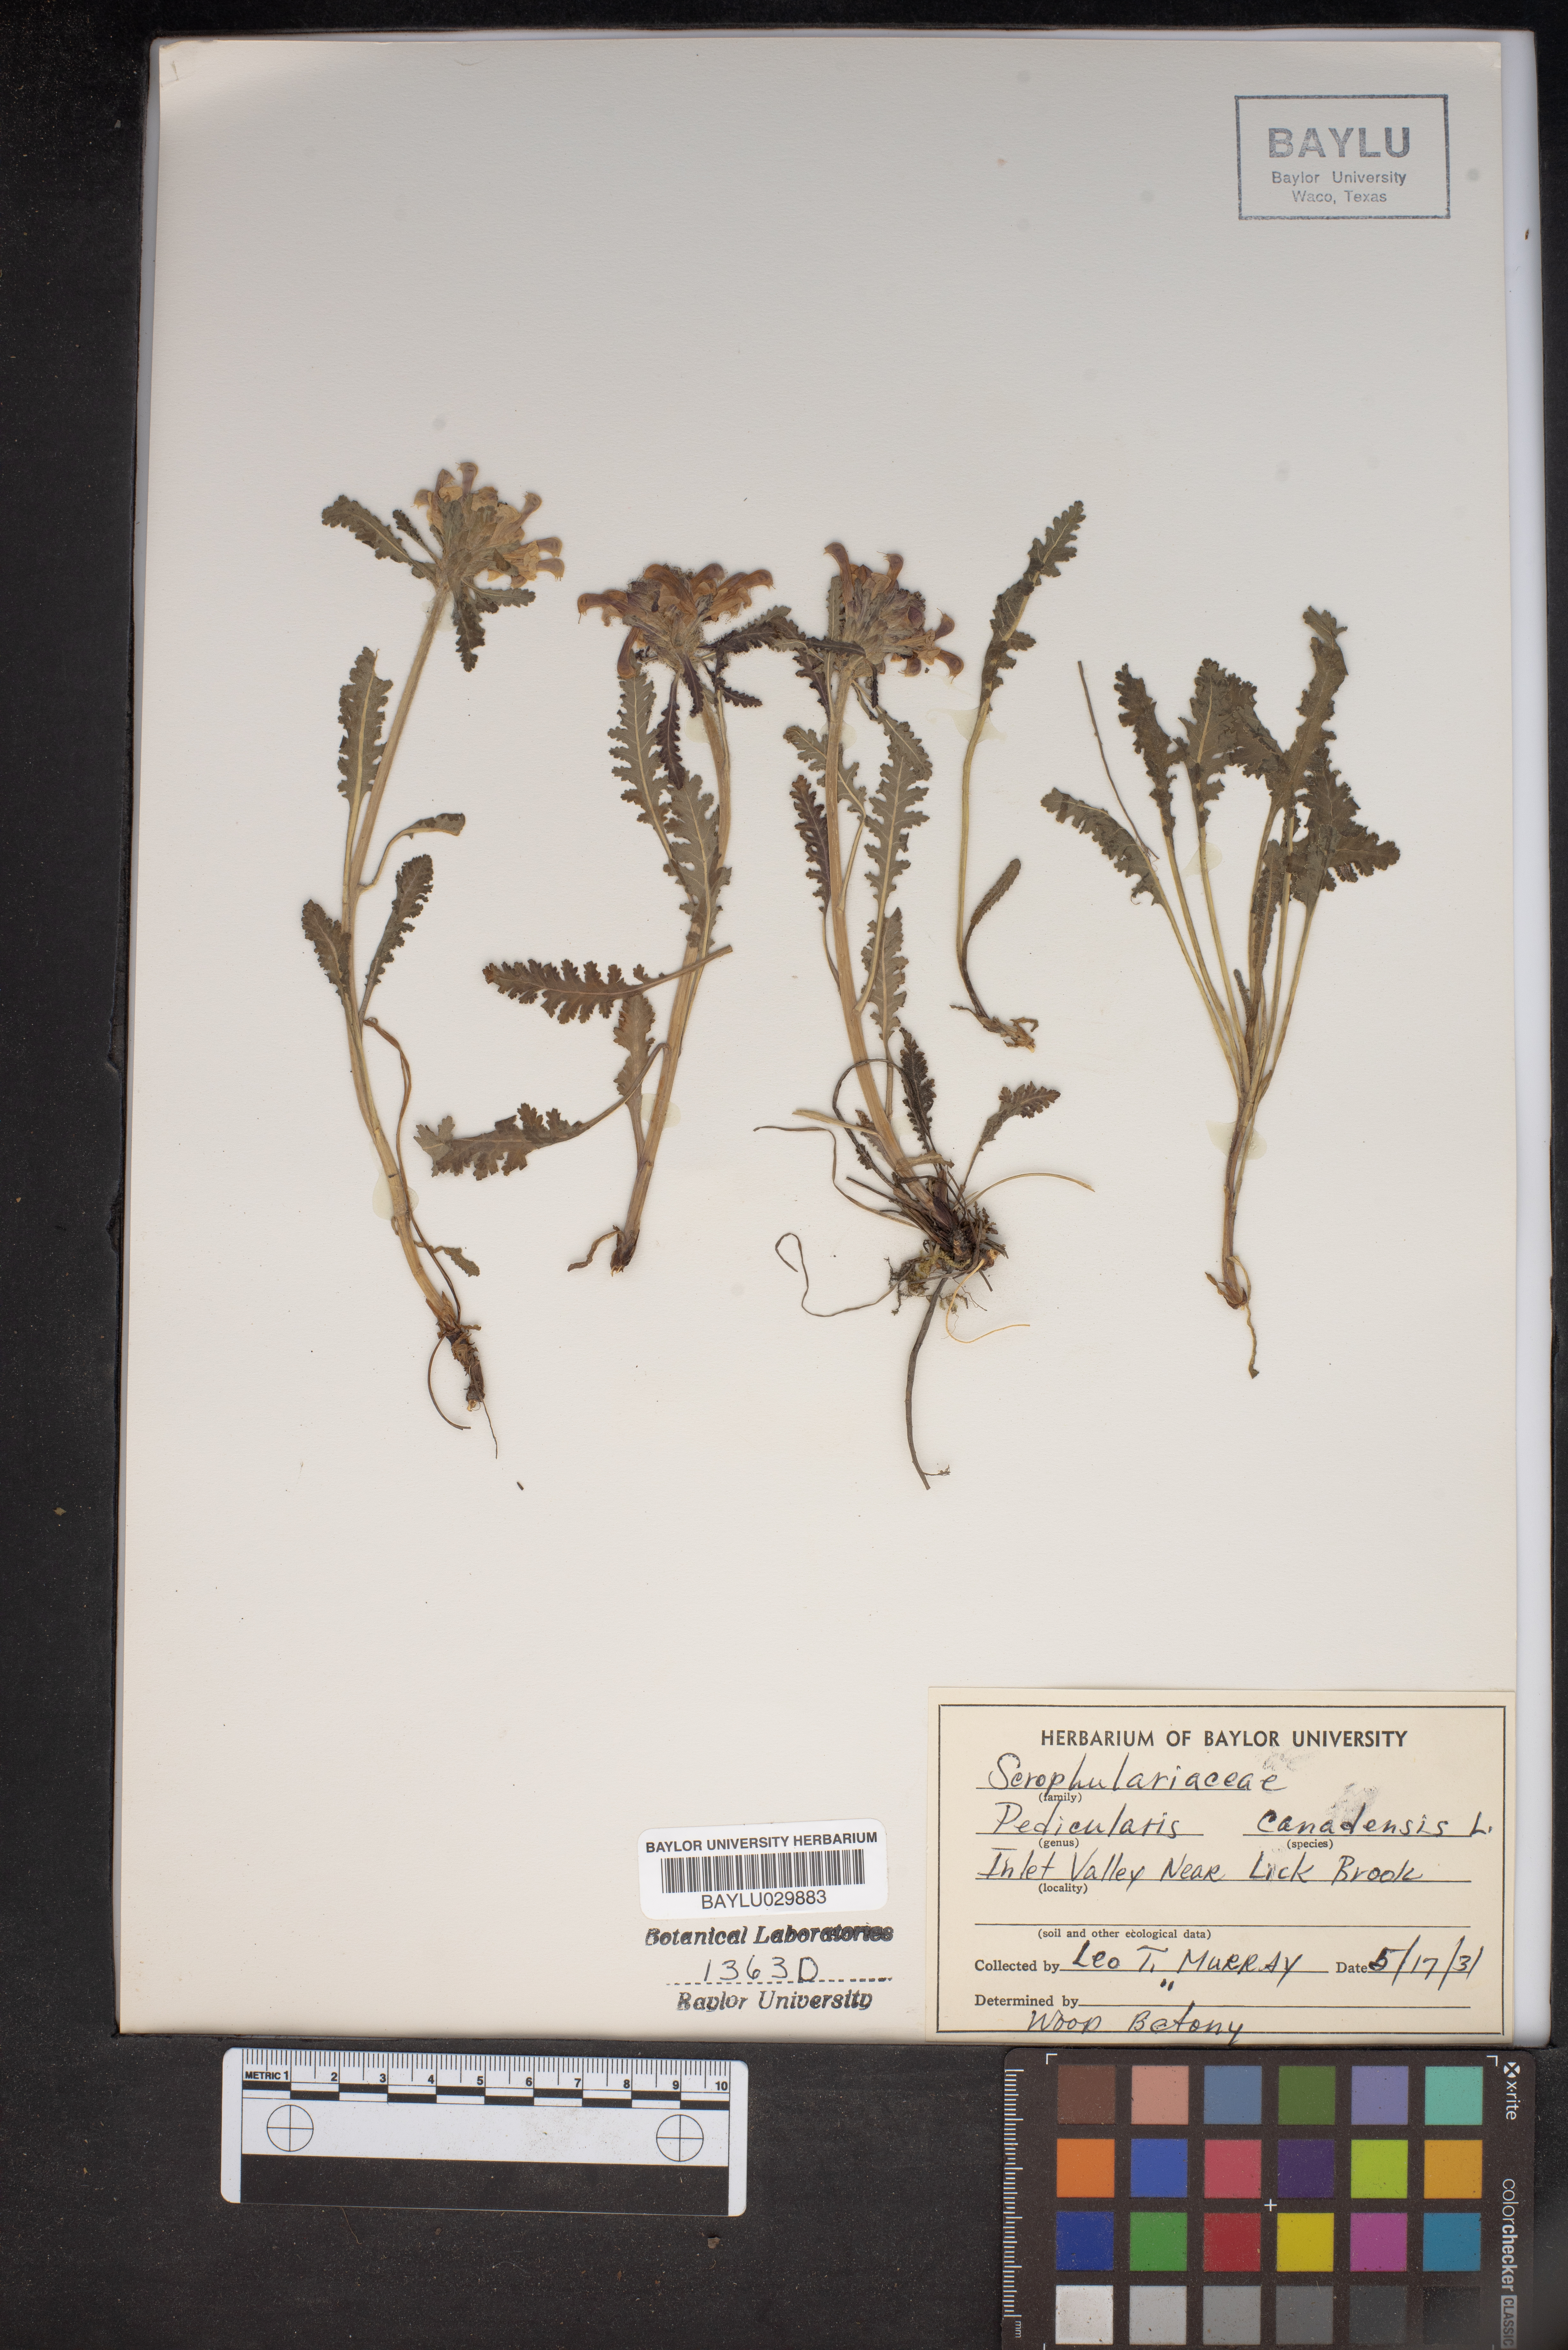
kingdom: Plantae
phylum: Tracheophyta
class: Magnoliopsida
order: Lamiales
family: Orobanchaceae
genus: Pedicularis
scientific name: Pedicularis canadensis
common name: Early lousewort
